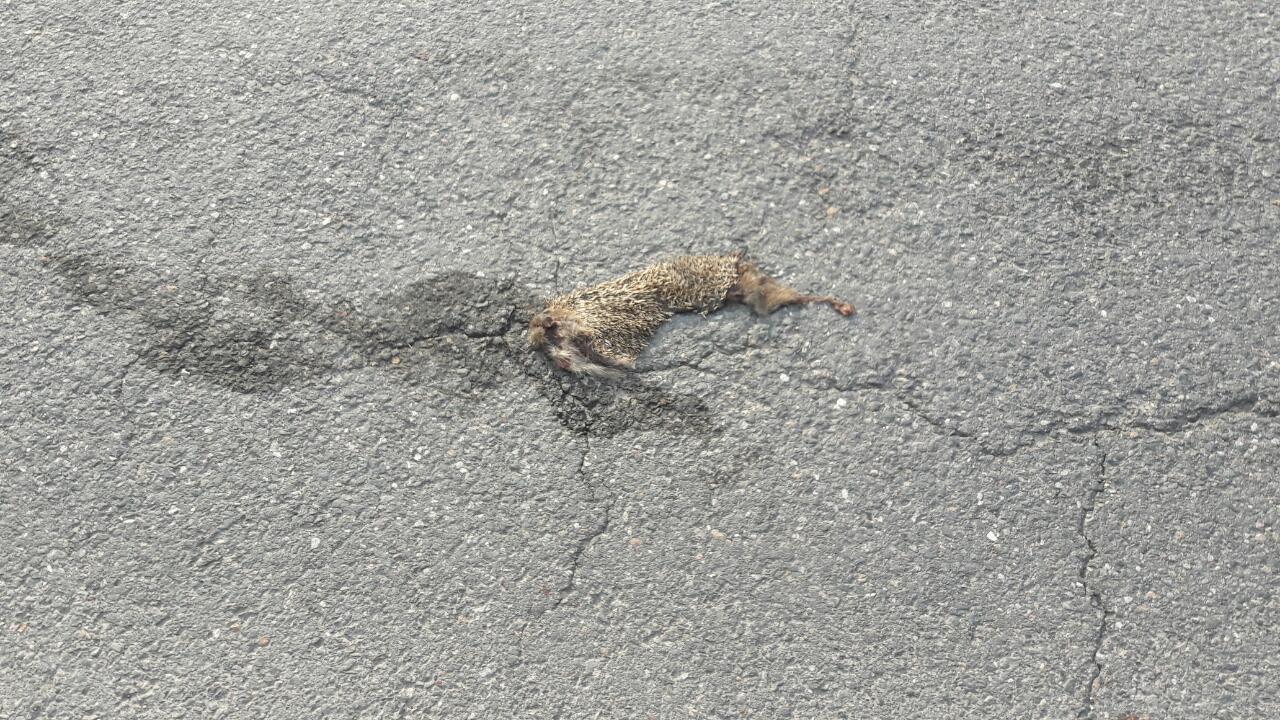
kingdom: Animalia
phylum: Chordata
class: Mammalia
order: Erinaceomorpha
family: Erinaceidae
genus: Erinaceus
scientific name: Erinaceus
